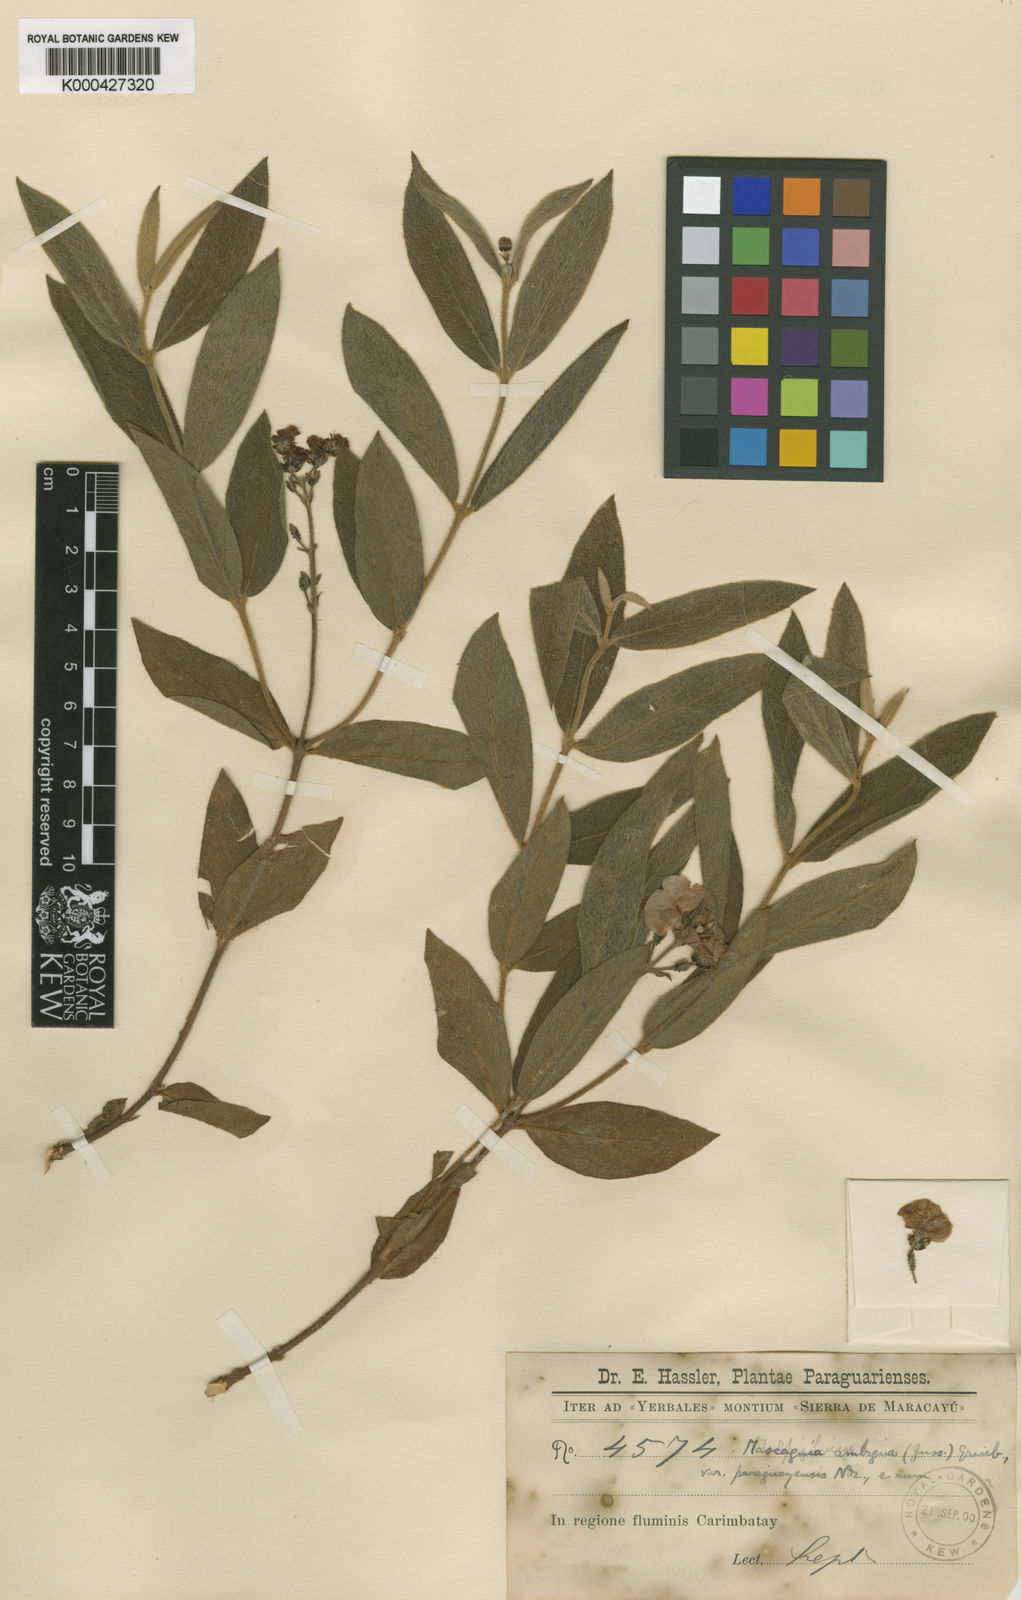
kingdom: Plantae
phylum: Tracheophyta
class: Magnoliopsida
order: Malpighiales
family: Malpighiaceae
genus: Glicophyllum
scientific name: Glicophyllum ambiguum
